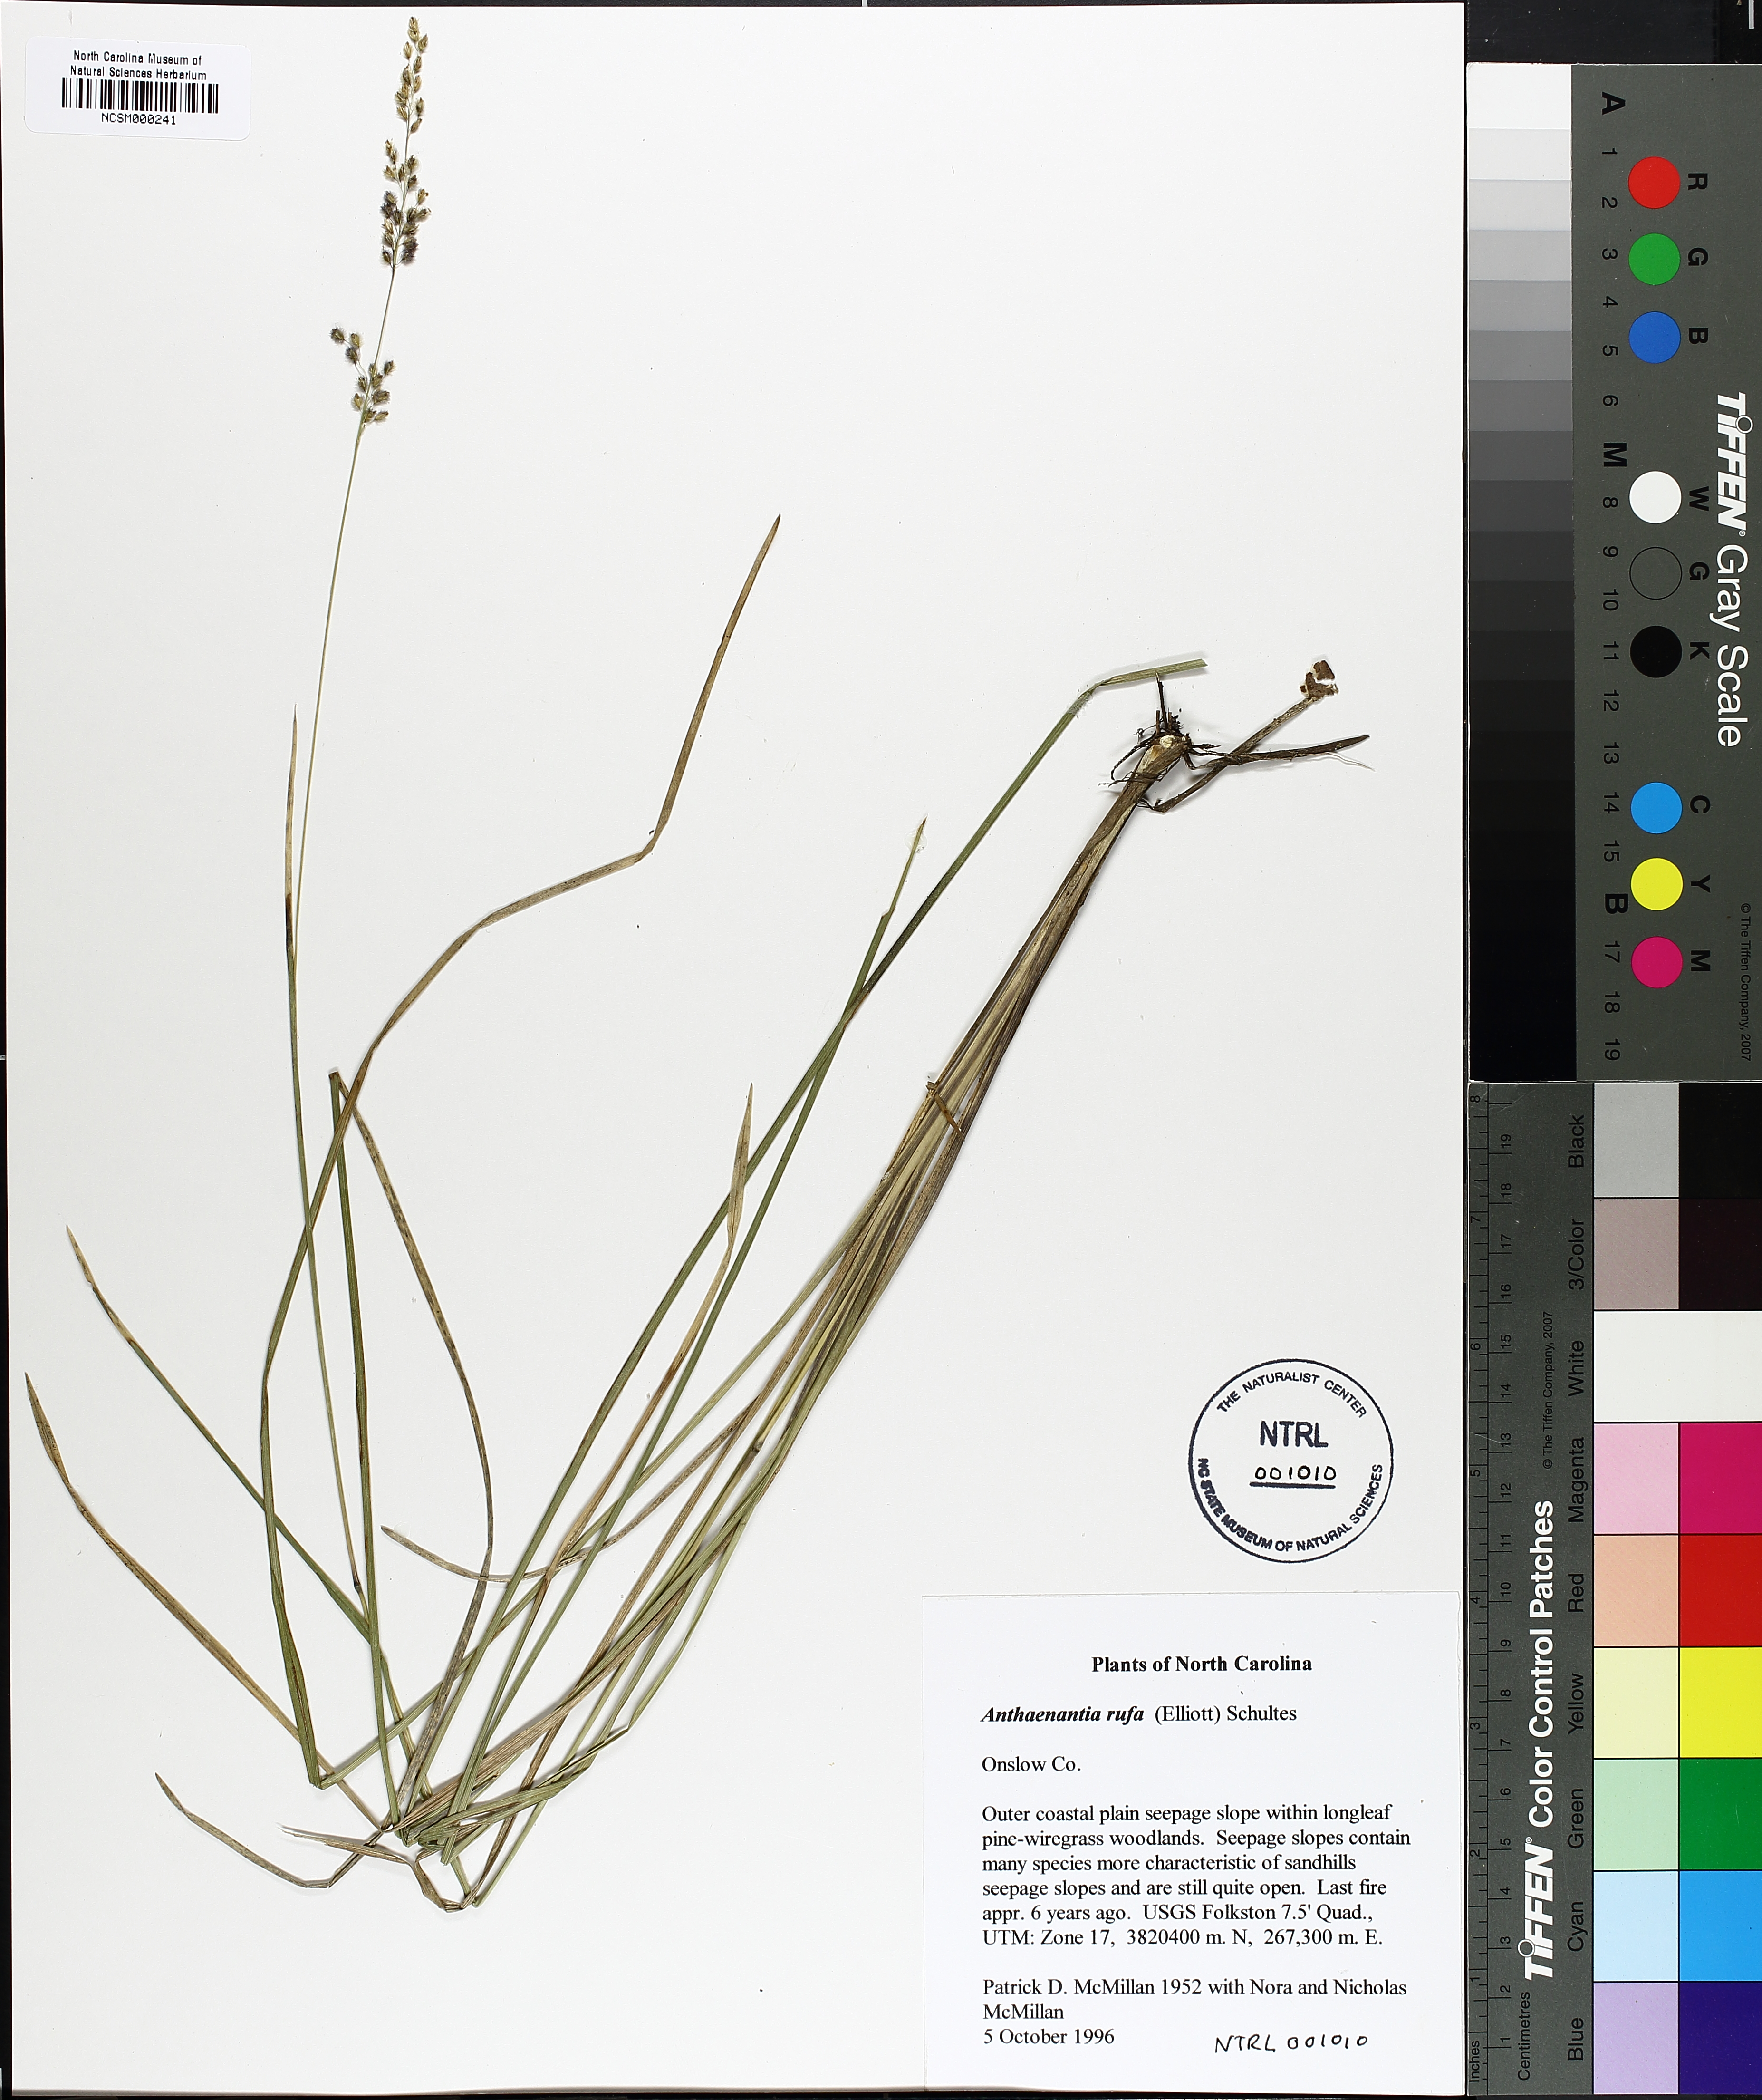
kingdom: Plantae
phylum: Tracheophyta
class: Liliopsida
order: Poales
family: Poaceae
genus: Anthenantia
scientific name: Anthenantia rufa
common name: Purple silkyscale
